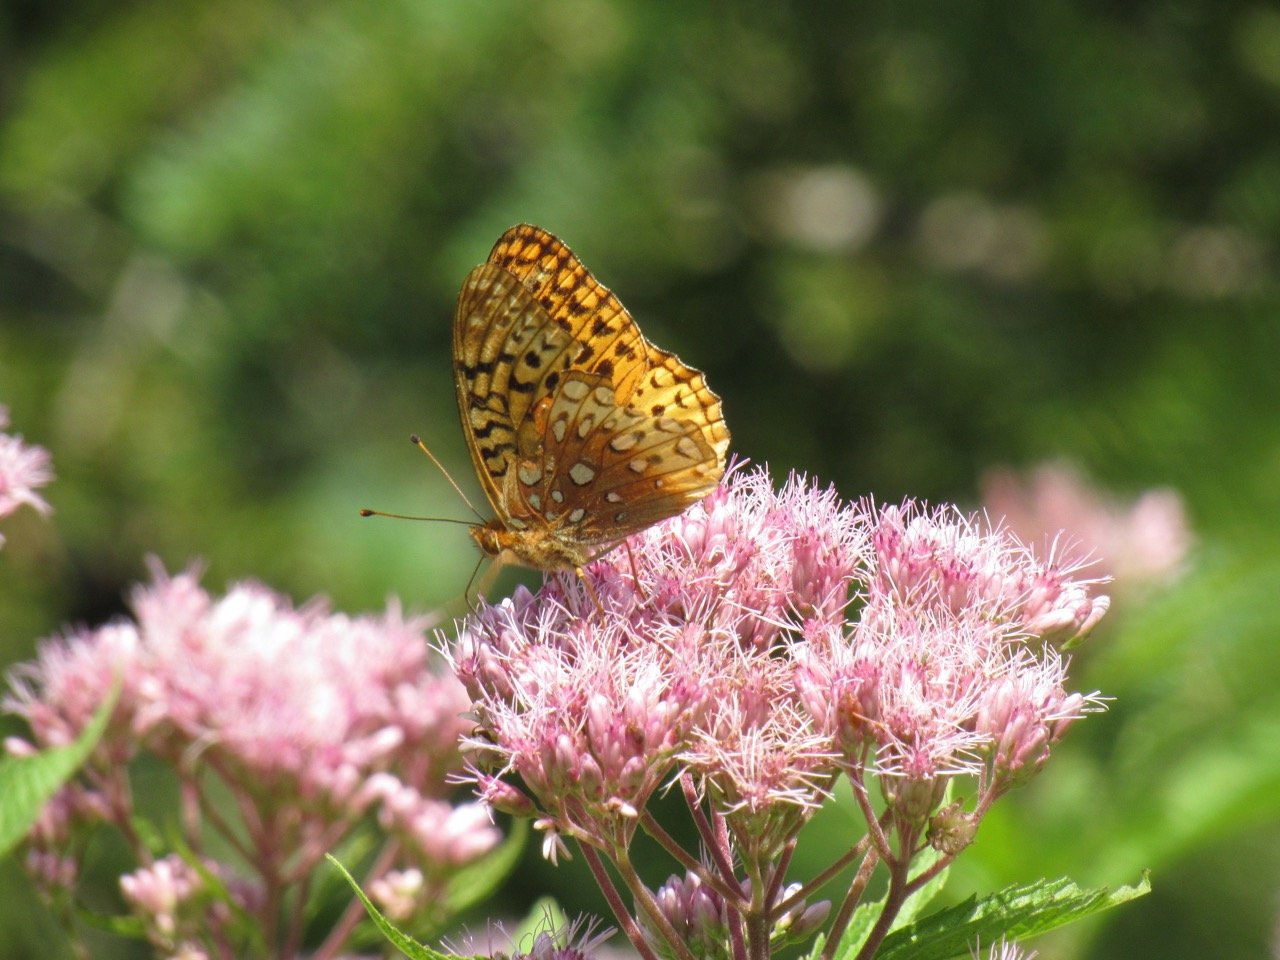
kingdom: Animalia
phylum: Arthropoda
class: Insecta
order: Lepidoptera
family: Nymphalidae
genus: Speyeria
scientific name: Speyeria aphrodite
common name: Aphrodite Fritillary
